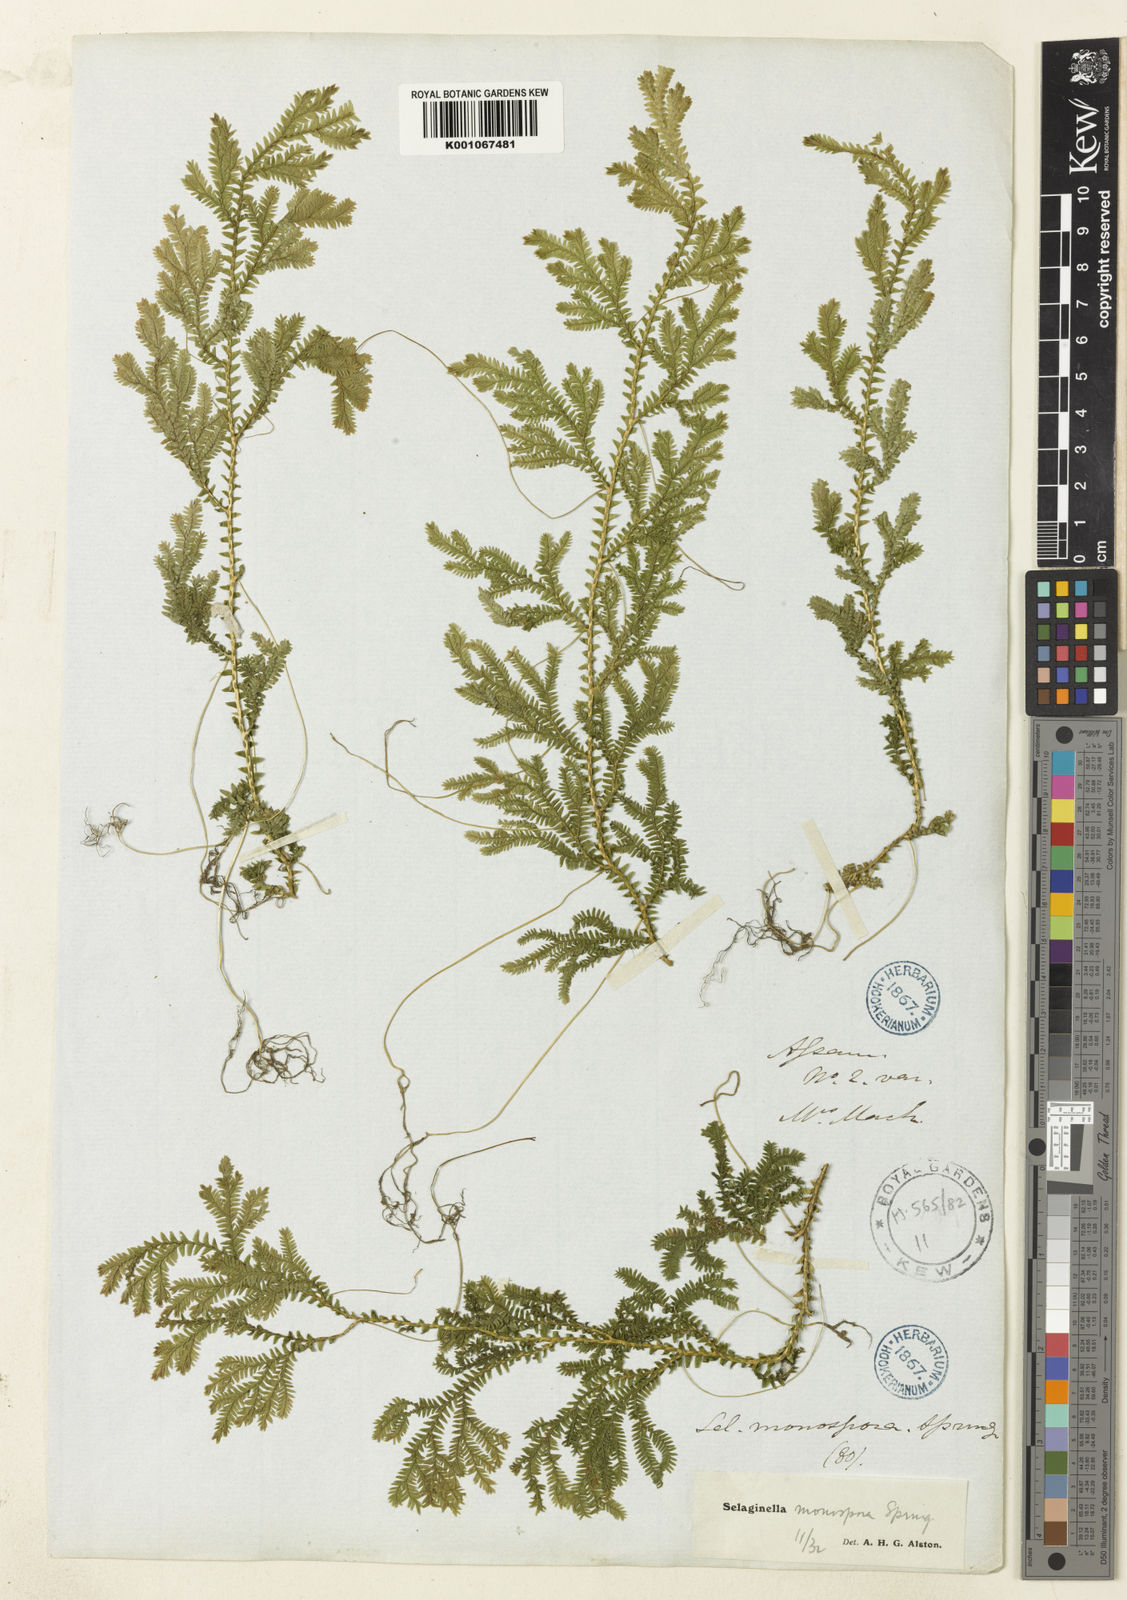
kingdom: Plantae
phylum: Tracheophyta
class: Lycopodiopsida
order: Selaginellales
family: Selaginellaceae
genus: Selaginella
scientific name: Selaginella monospora
